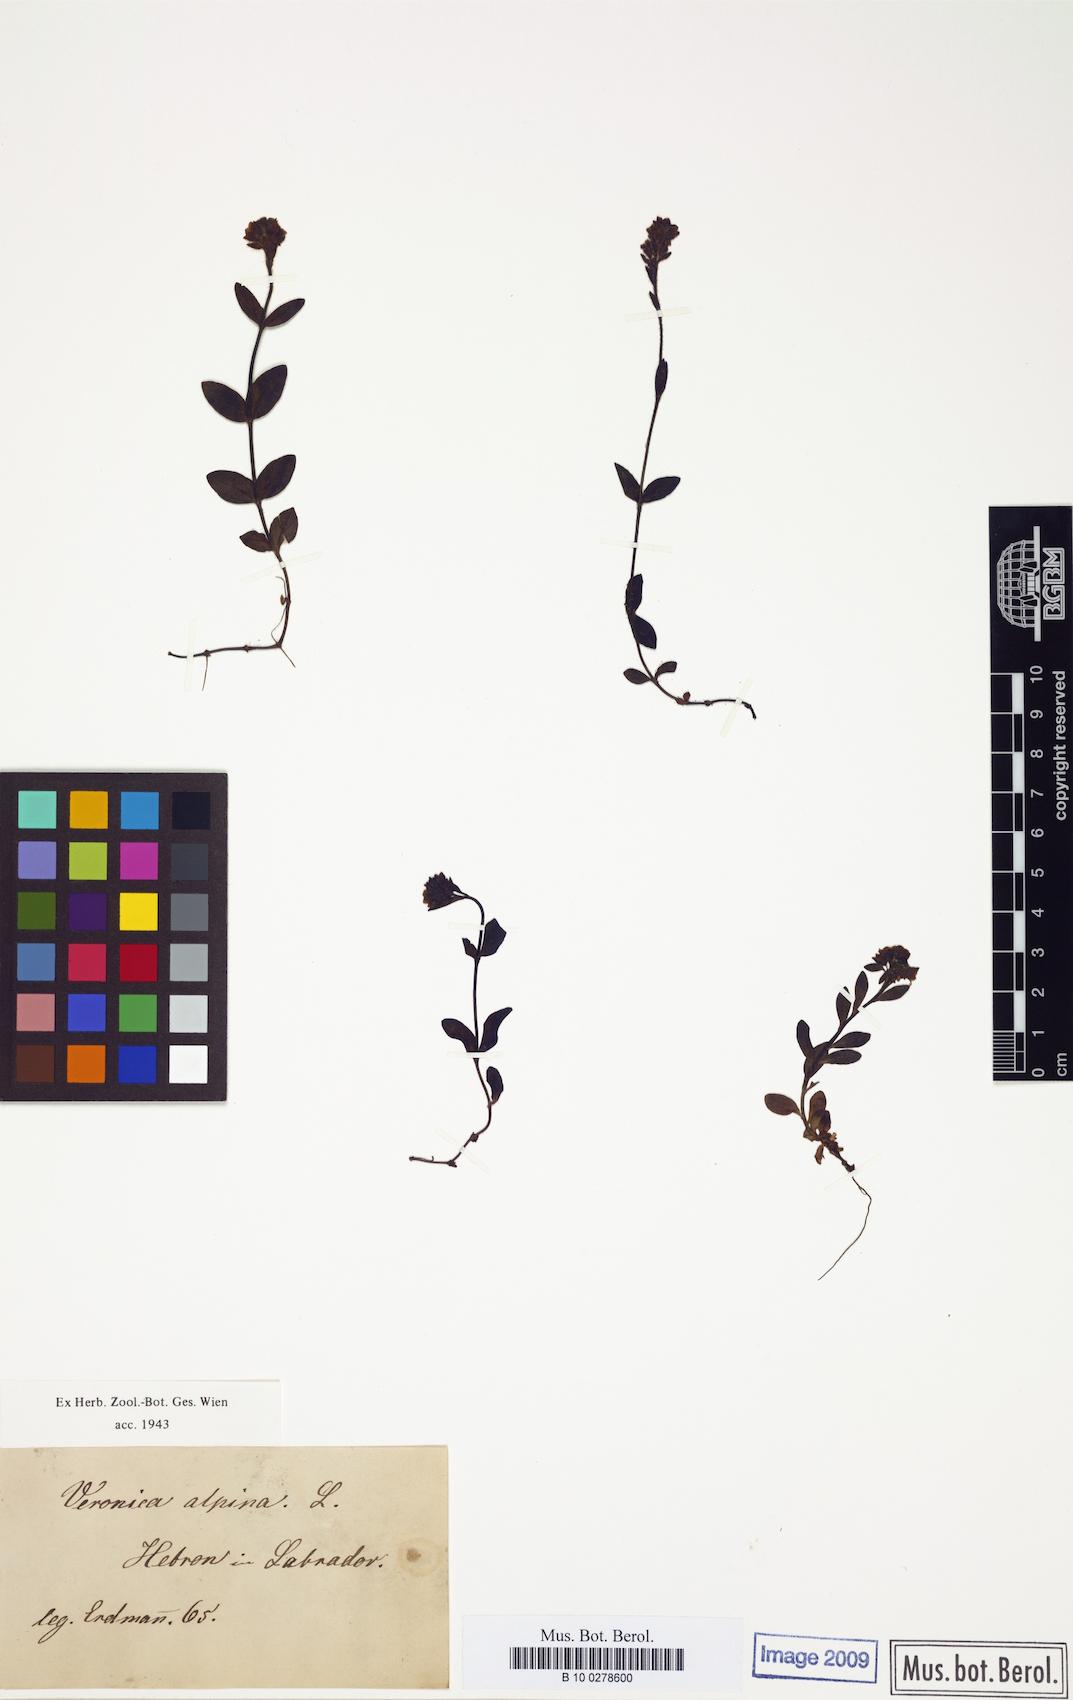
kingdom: Plantae
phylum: Tracheophyta
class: Magnoliopsida
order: Lamiales
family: Plantaginaceae
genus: Veronica
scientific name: Veronica wormskjoldii
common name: American alpine speedwell
